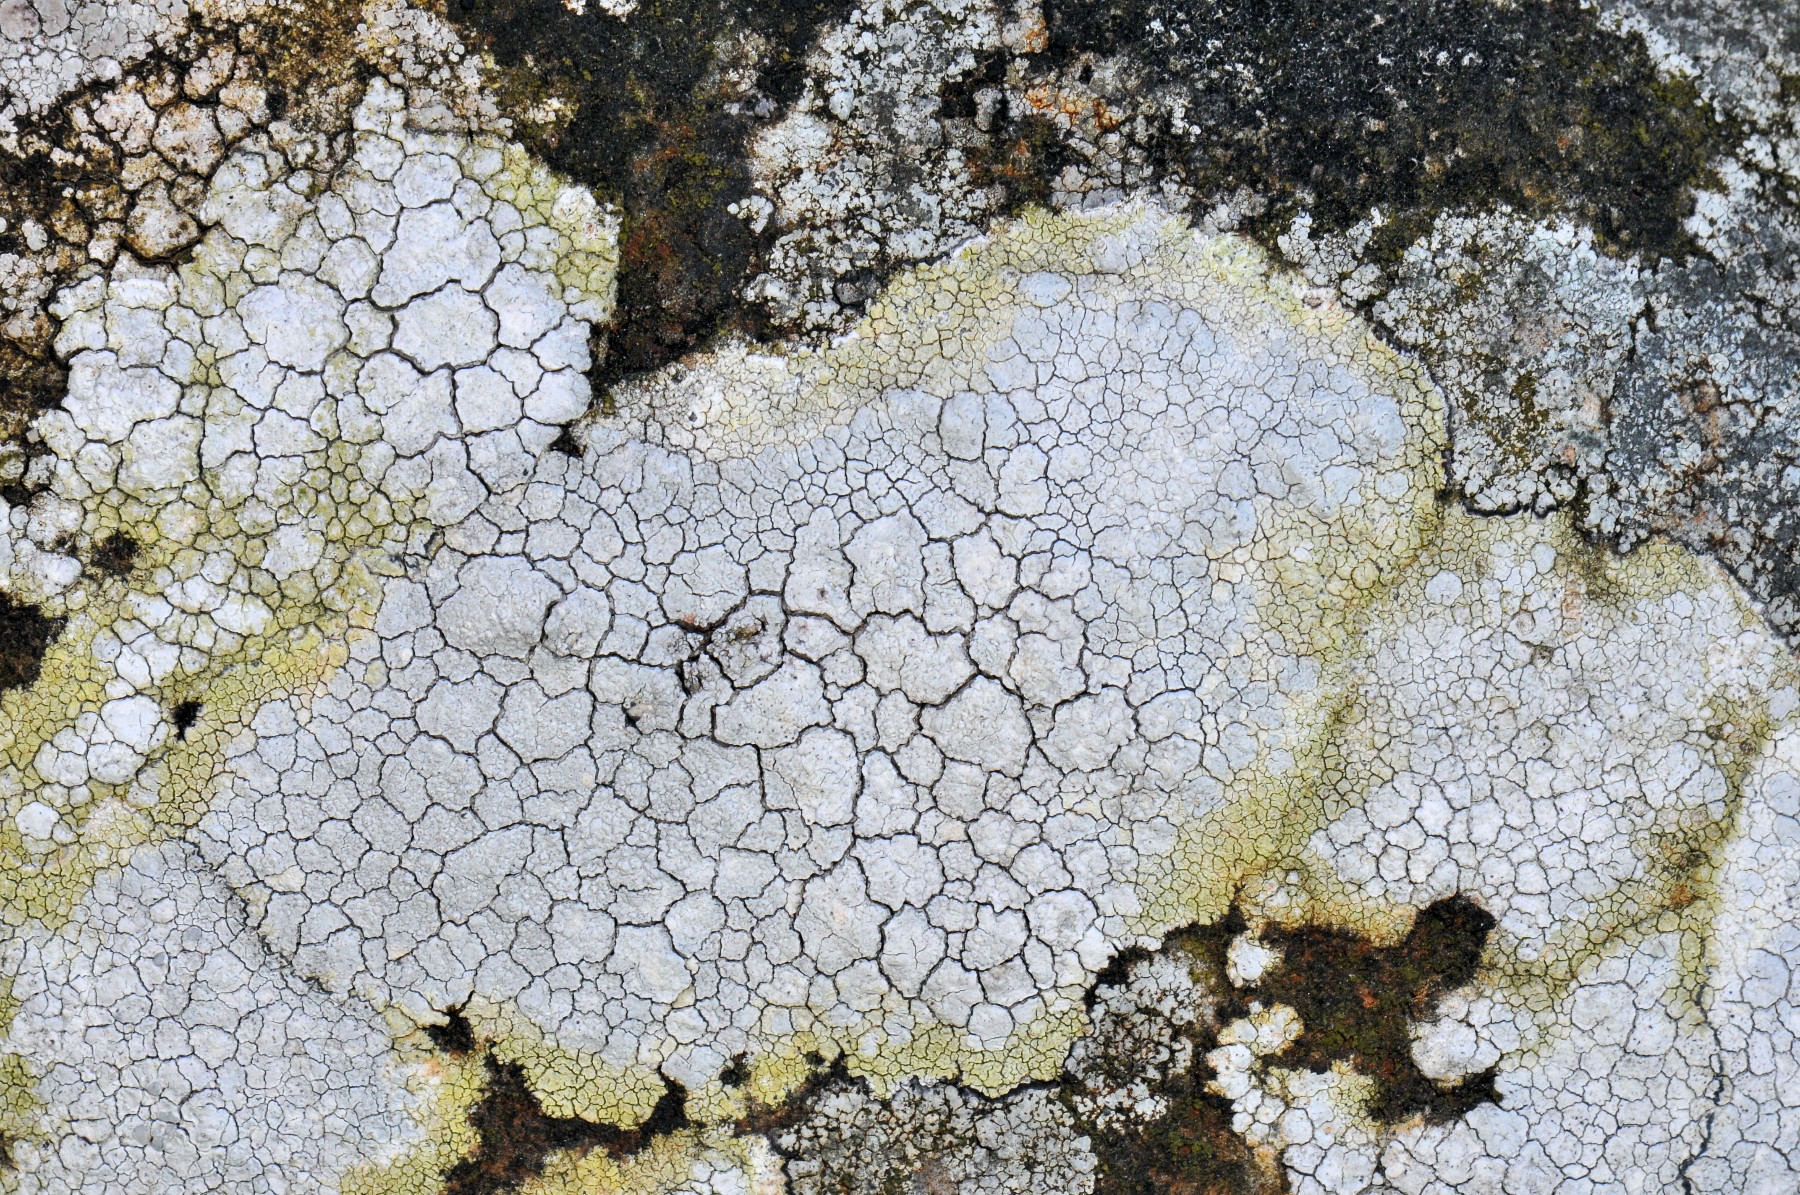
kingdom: Fungi
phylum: Ascomycota
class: Lecanoromycetes
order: Lecanorales
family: Lecanoraceae
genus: Glaucomaria
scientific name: Glaucomaria rupicola
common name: stengærde-kantskivelav
